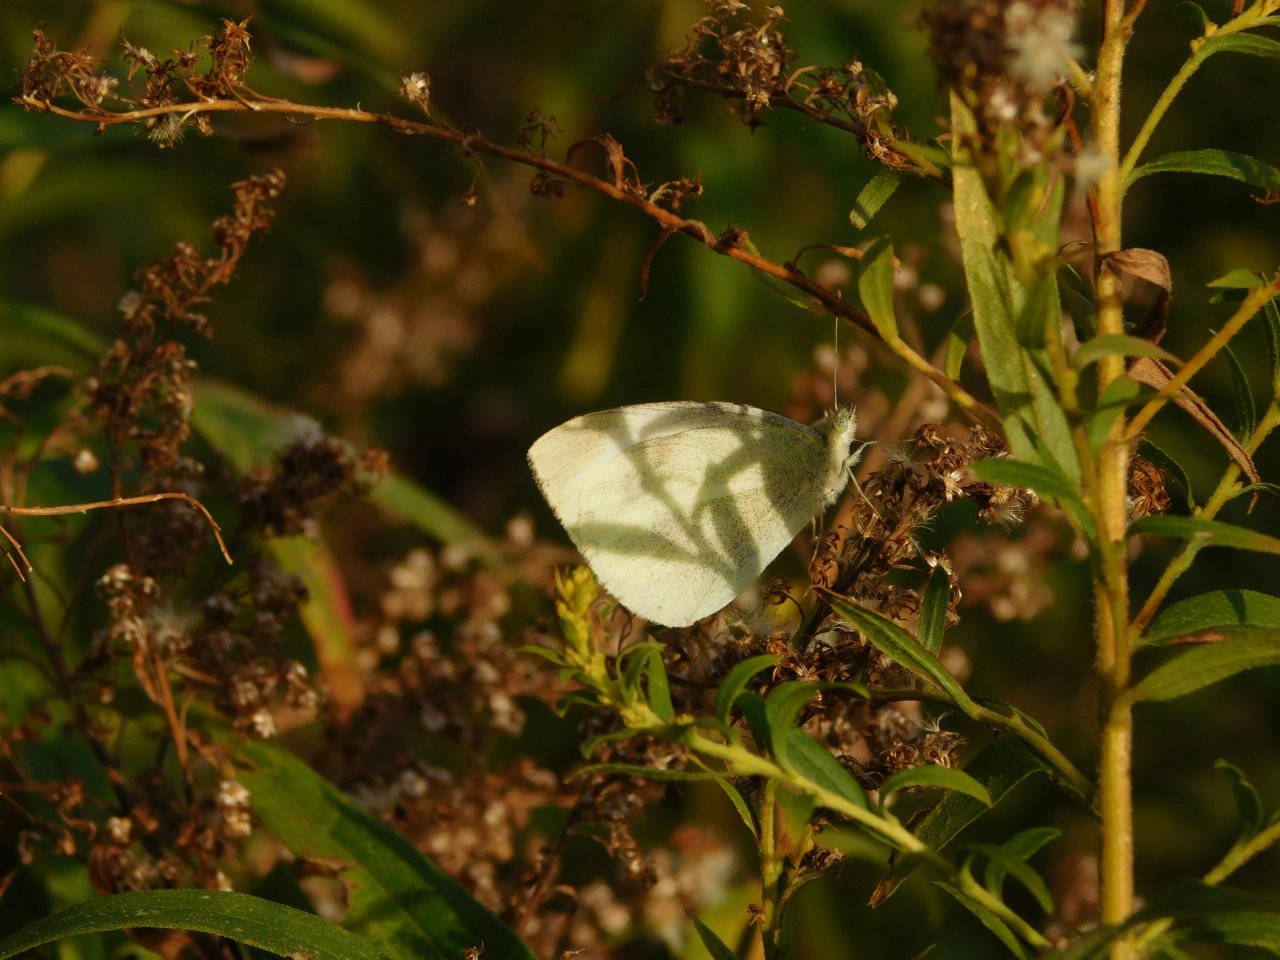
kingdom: Animalia
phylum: Arthropoda
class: Insecta
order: Lepidoptera
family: Pieridae
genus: Pieris
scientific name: Pieris rapae
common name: Cabbage White
